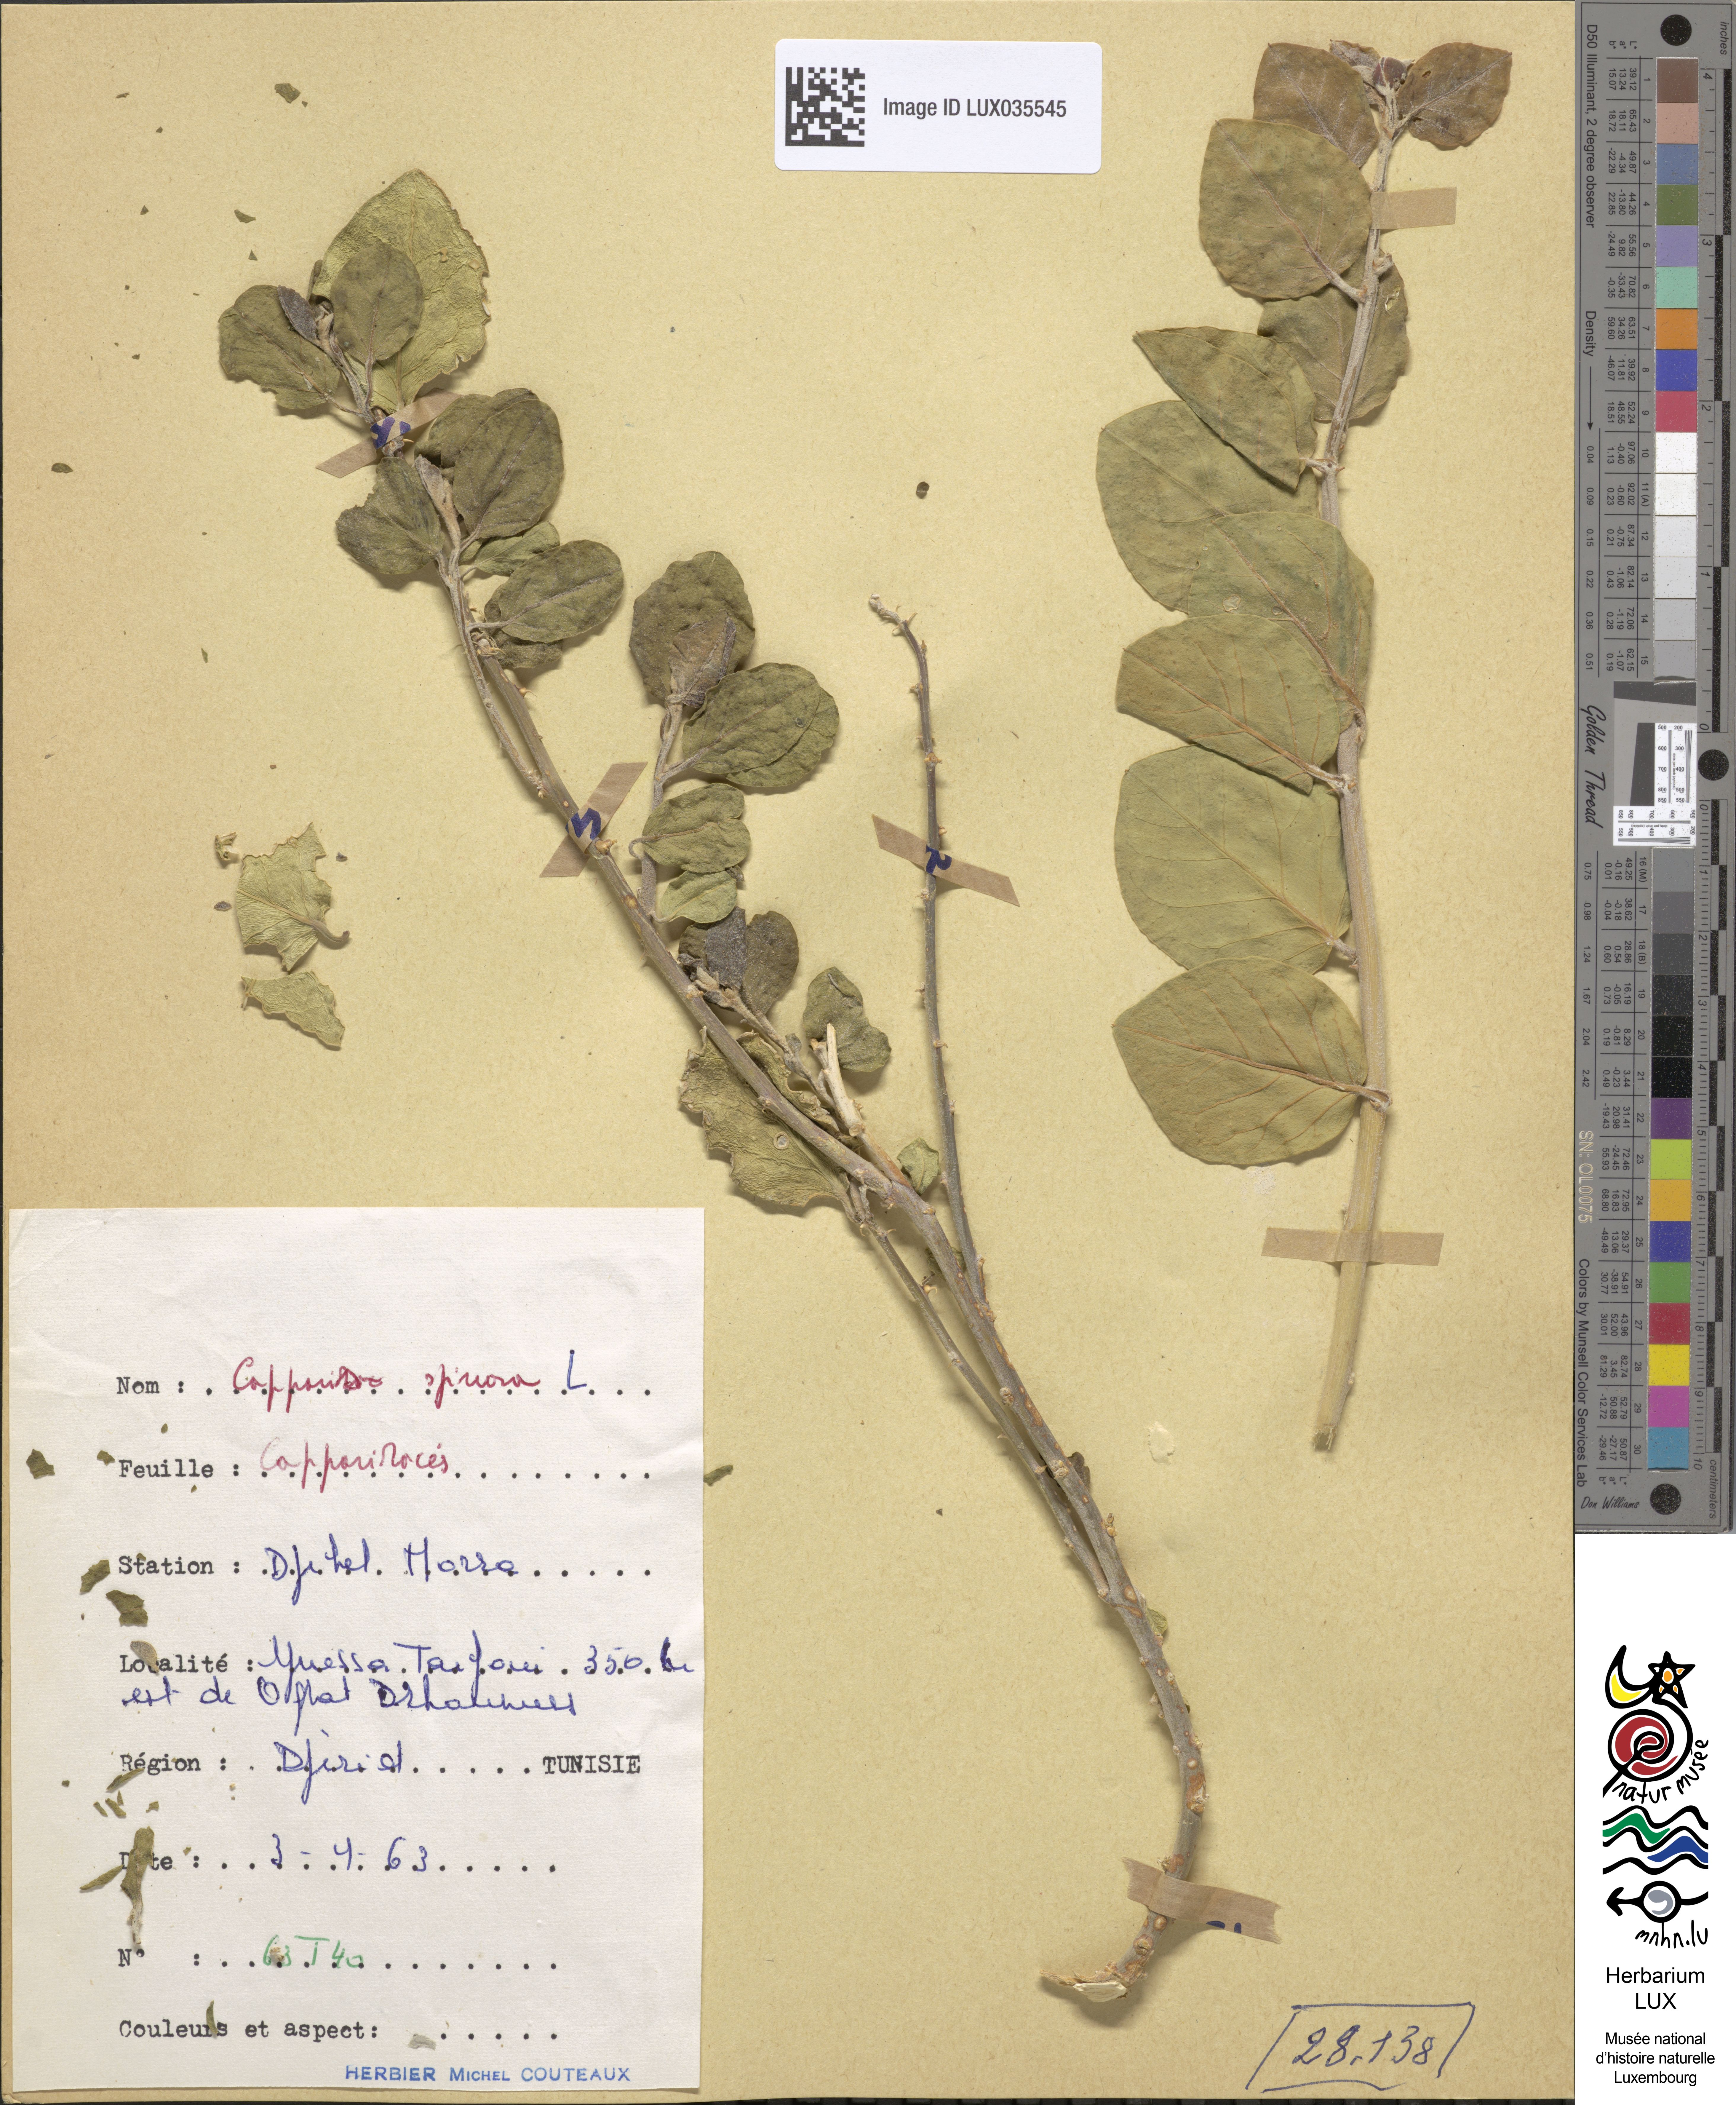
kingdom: Plantae
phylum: Tracheophyta
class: Magnoliopsida
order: Brassicales
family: Capparaceae
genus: Capparis
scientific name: Capparis spinosa
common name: Caper
